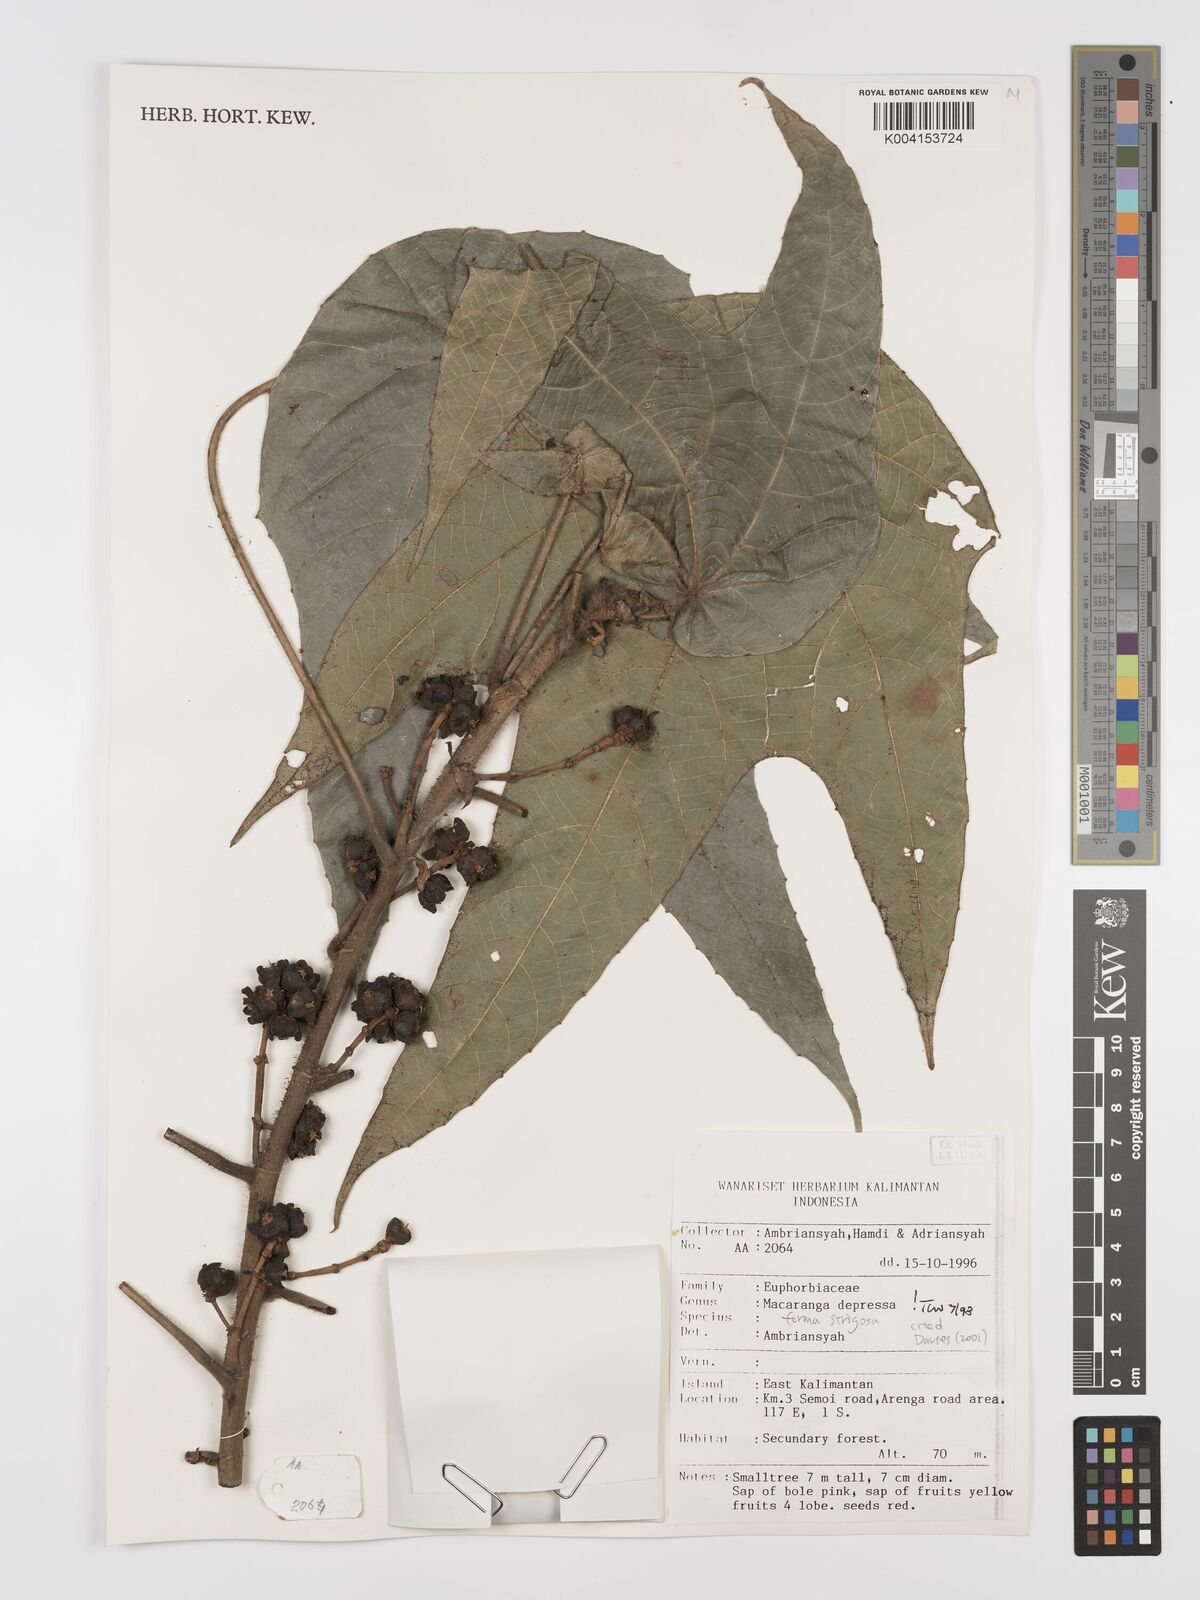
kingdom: Plantae
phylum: Tracheophyta
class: Magnoliopsida
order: Malpighiales
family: Euphorbiaceae
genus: Macaranga
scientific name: Macaranga depressa
